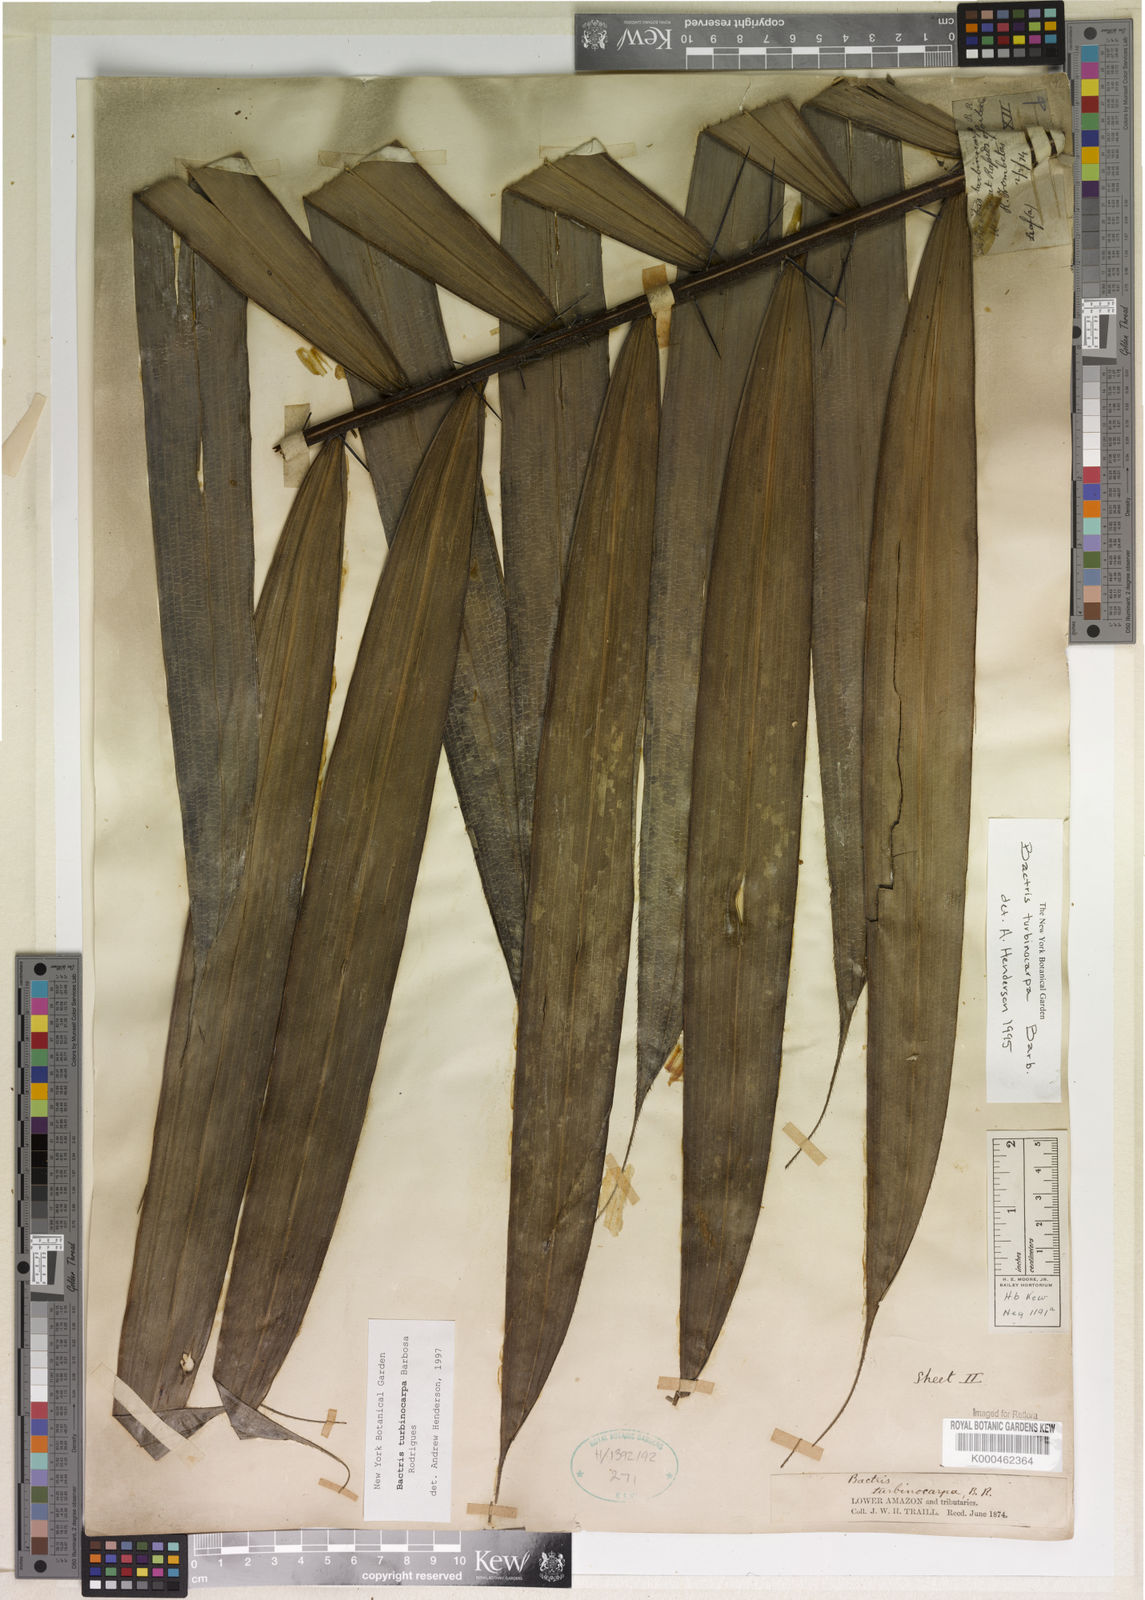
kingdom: Plantae
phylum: Tracheophyta
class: Liliopsida
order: Arecales
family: Arecaceae
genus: Bactris
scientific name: Bactris turbinocarpa
